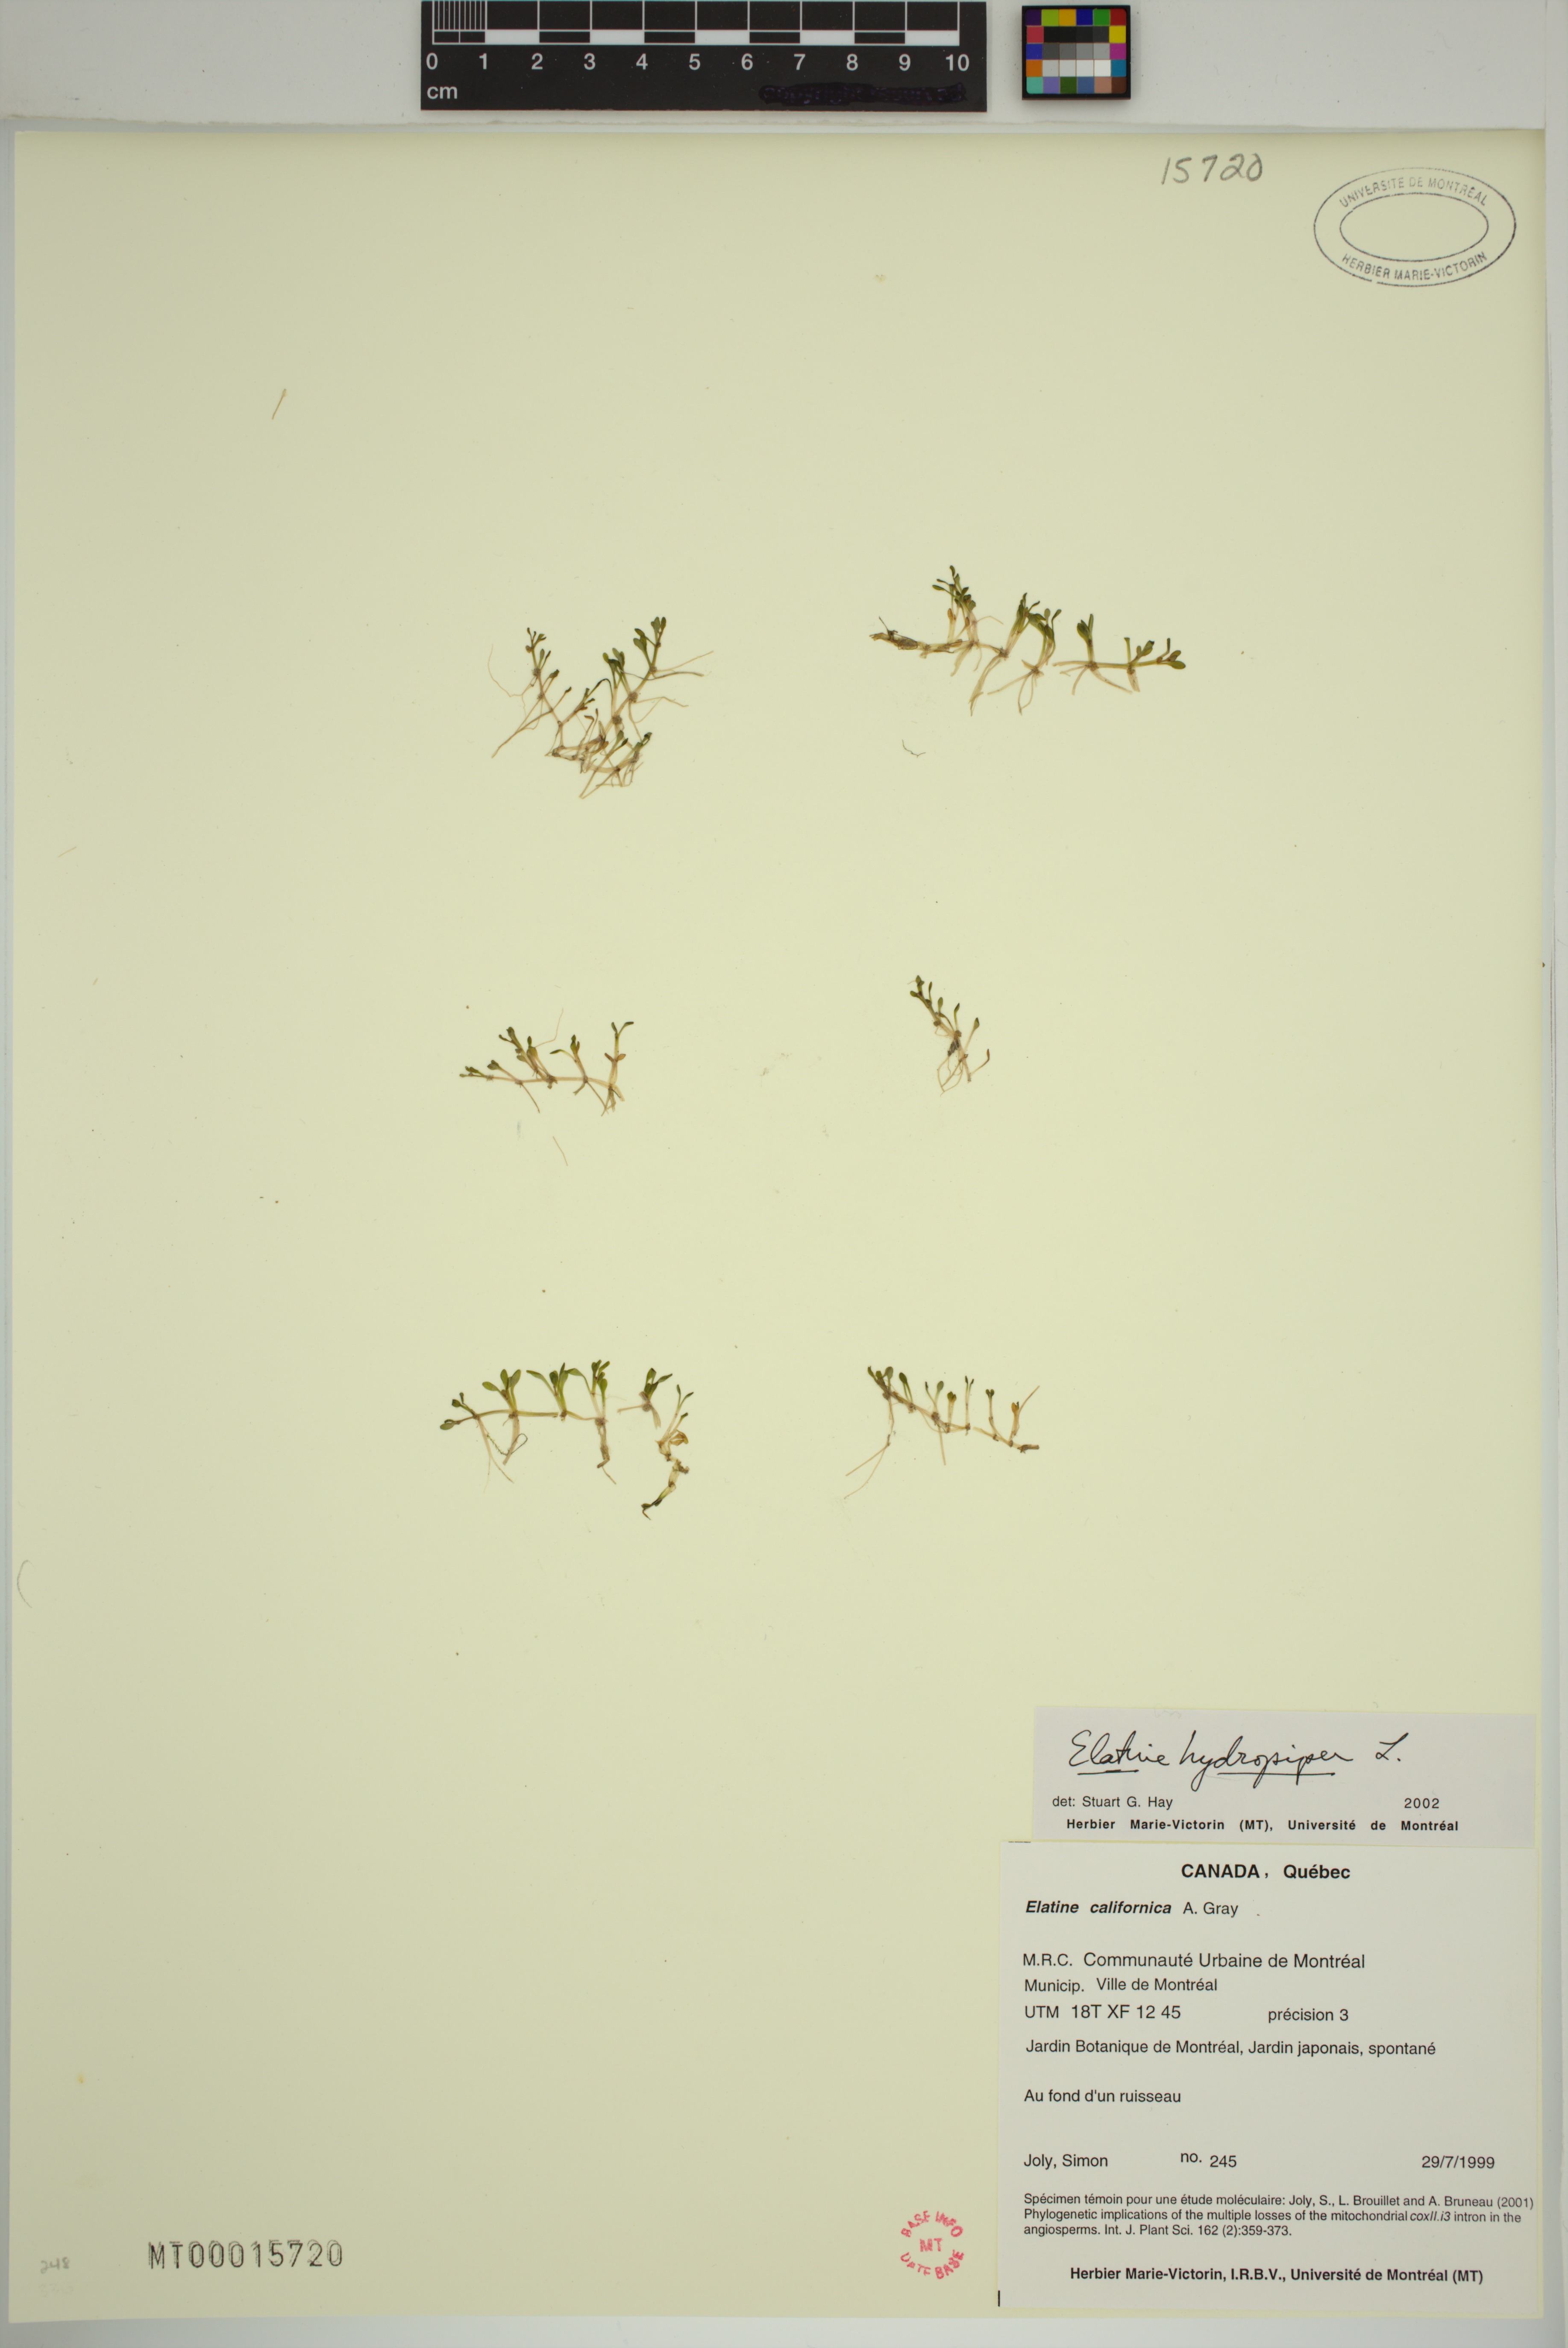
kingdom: Plantae
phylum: Tracheophyta
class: Magnoliopsida
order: Malpighiales
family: Elatinaceae
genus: Elatine
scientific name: Elatine hydropiper
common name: Eight-stamened waterwort
